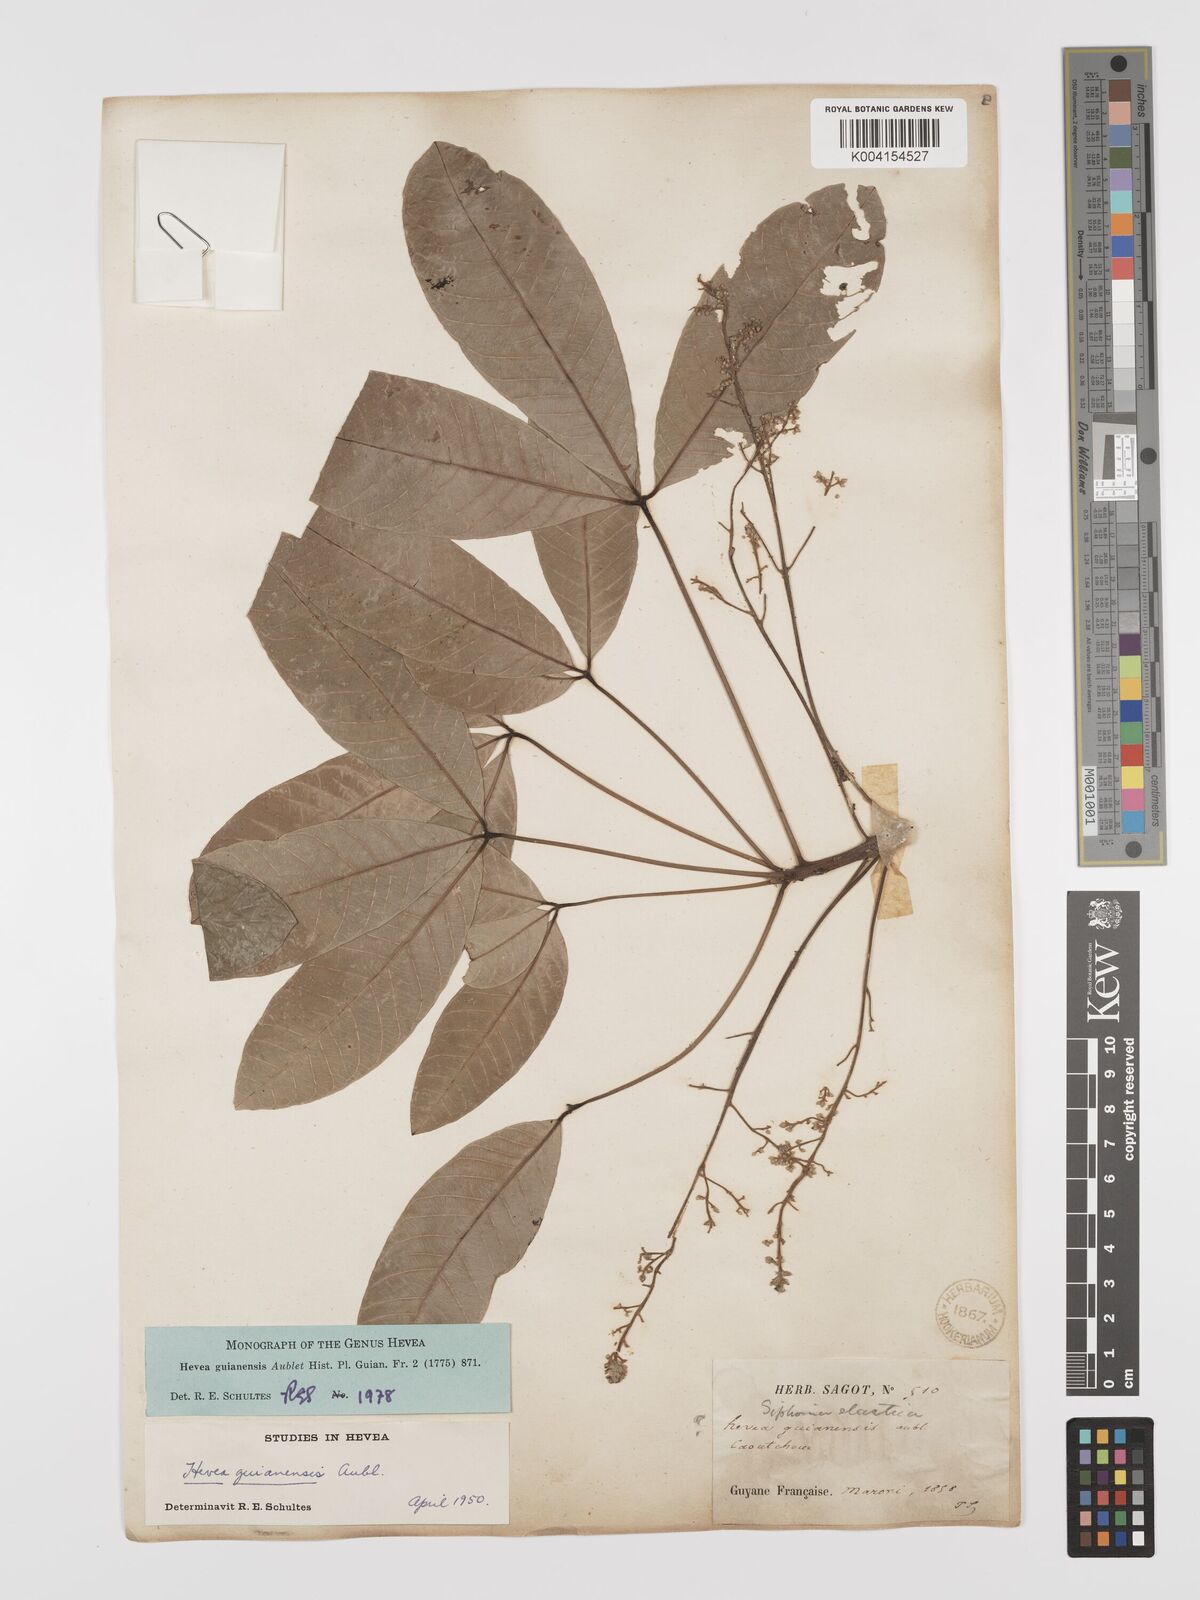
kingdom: Plantae
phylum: Tracheophyta
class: Magnoliopsida
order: Malpighiales
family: Euphorbiaceae
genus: Hevea
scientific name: Hevea guianensis
